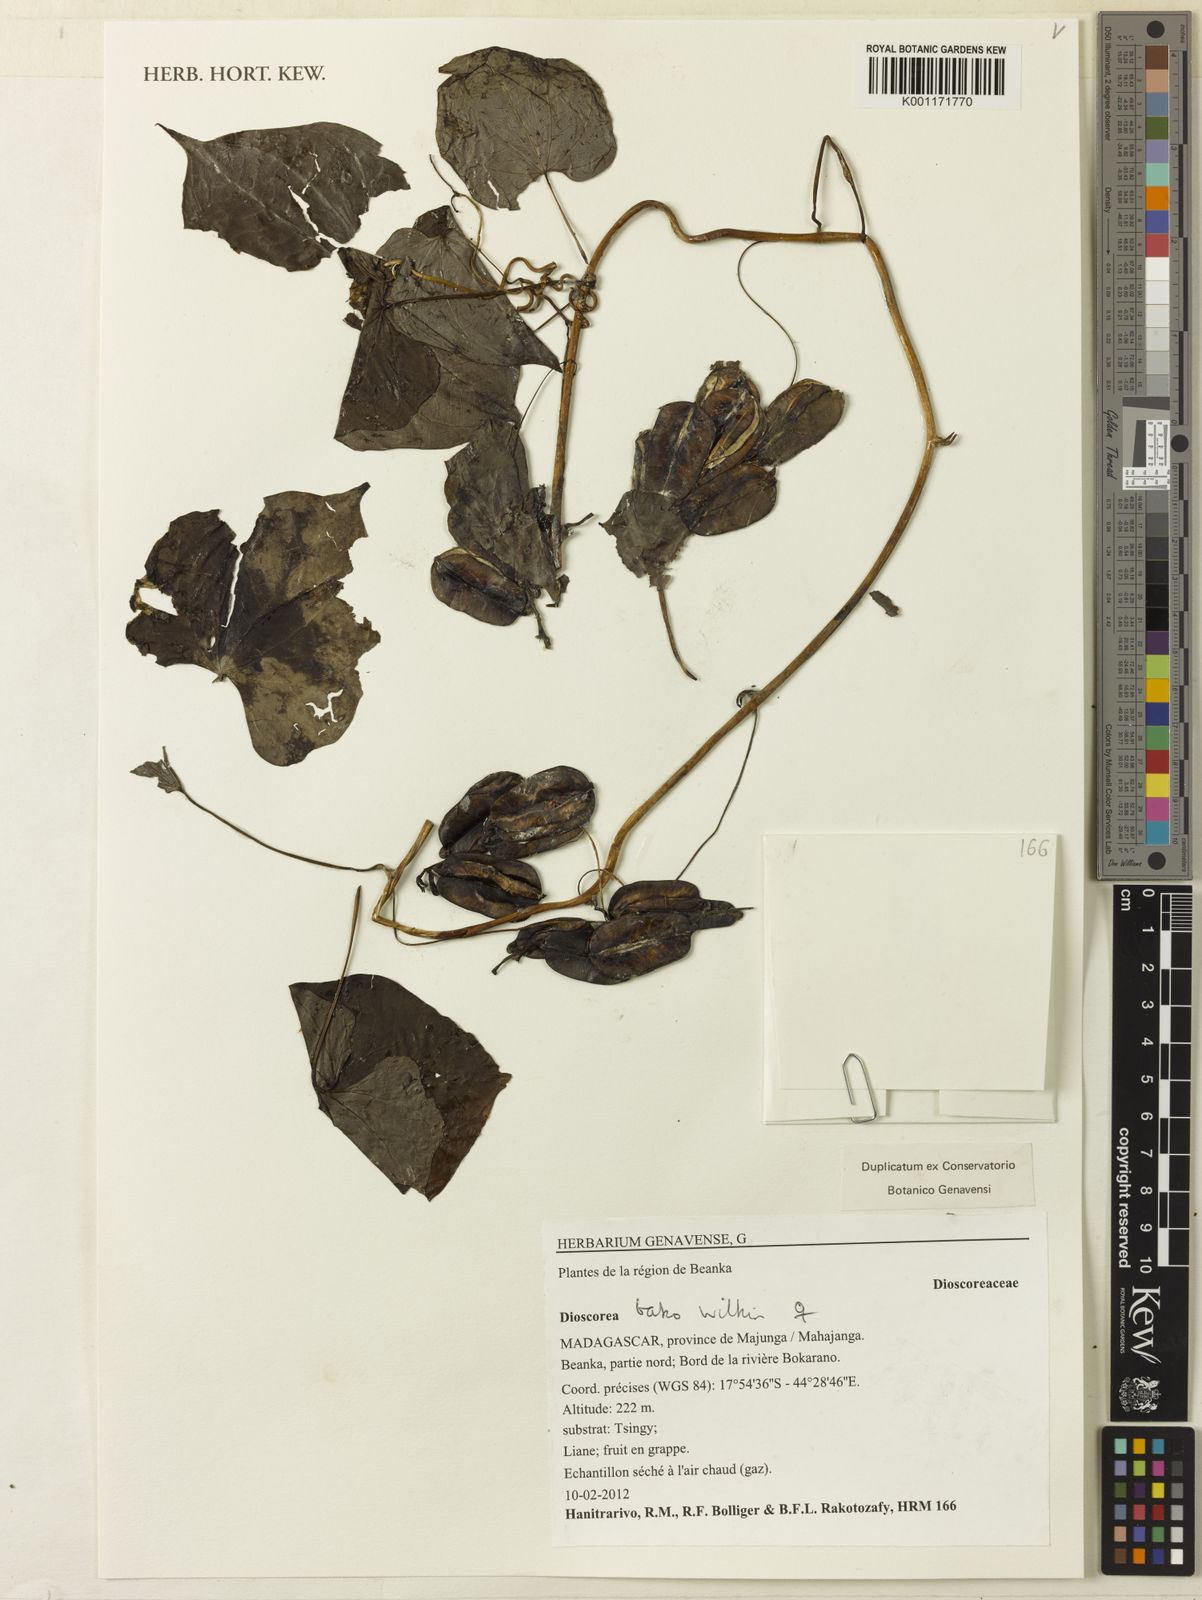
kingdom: Plantae
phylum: Tracheophyta
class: Liliopsida
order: Dioscoreales
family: Dioscoreaceae
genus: Dioscorea
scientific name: Dioscorea bako
